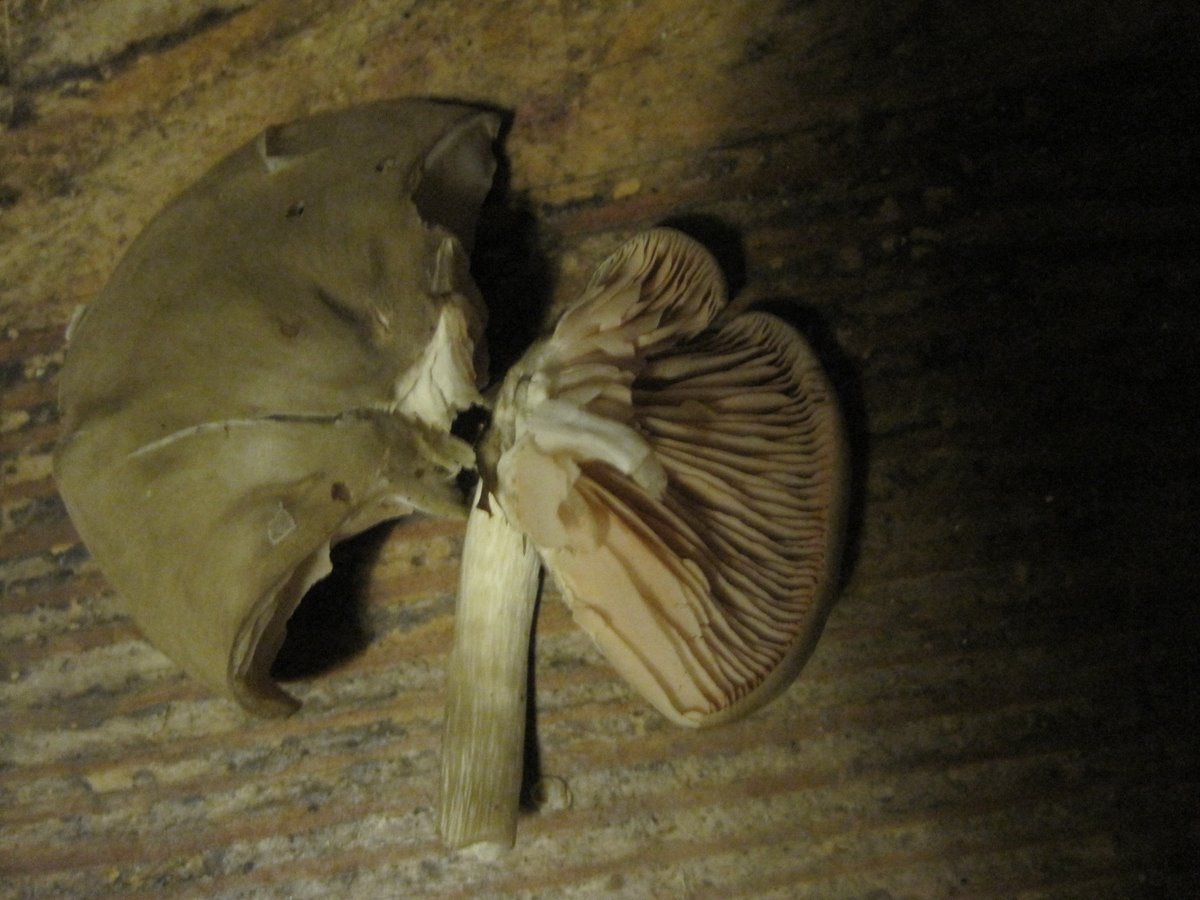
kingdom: Fungi
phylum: Basidiomycota
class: Agaricomycetes
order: Agaricales
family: Entolomataceae
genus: Entoloma
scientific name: Entoloma rhodopolium
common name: skov-rødblad
